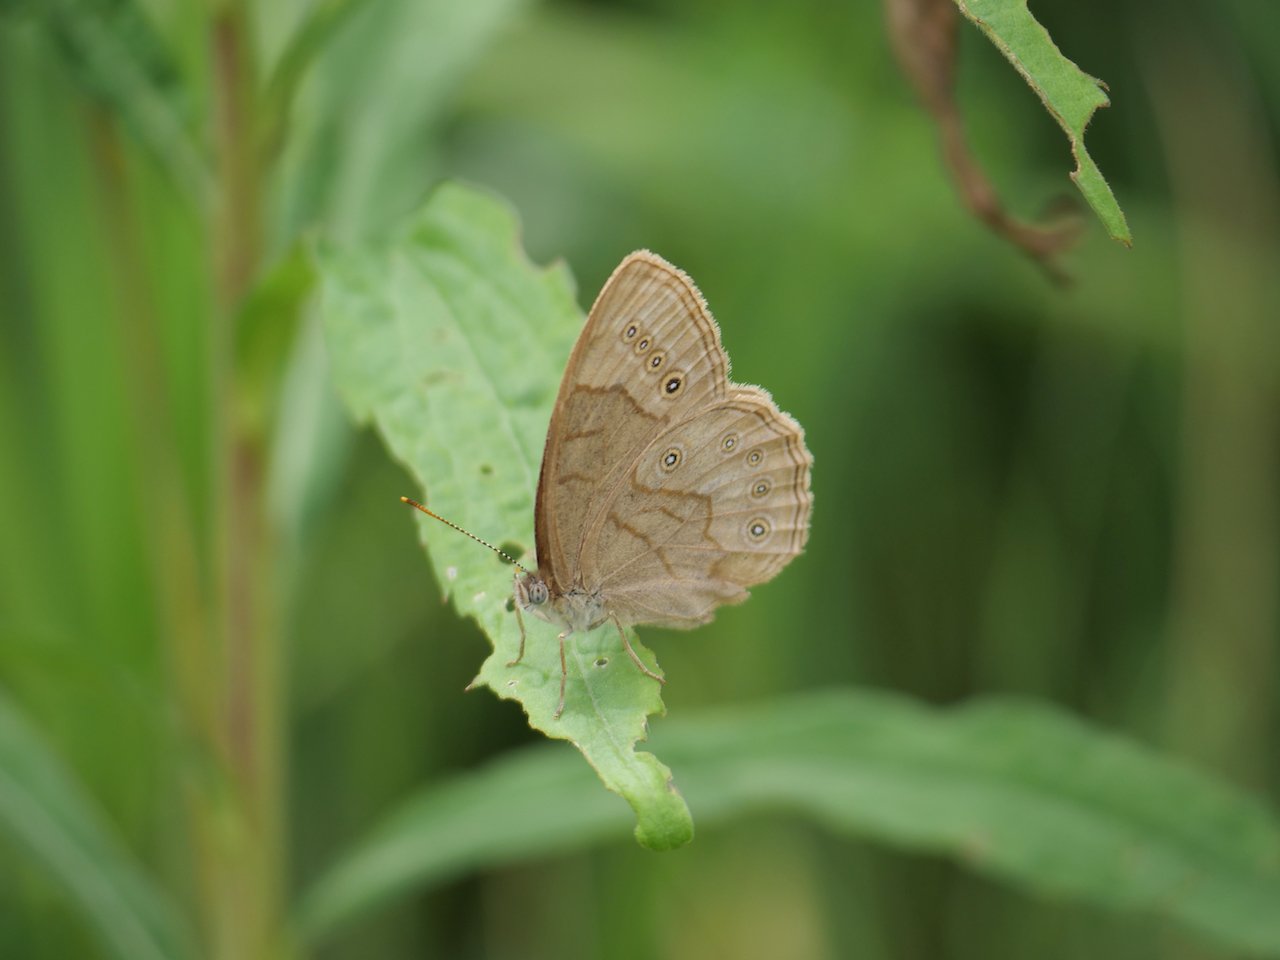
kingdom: Animalia
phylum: Arthropoda
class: Insecta
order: Lepidoptera
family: Nymphalidae
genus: Lethe
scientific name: Lethe eurydice
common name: Appalachian Eyed Brown
